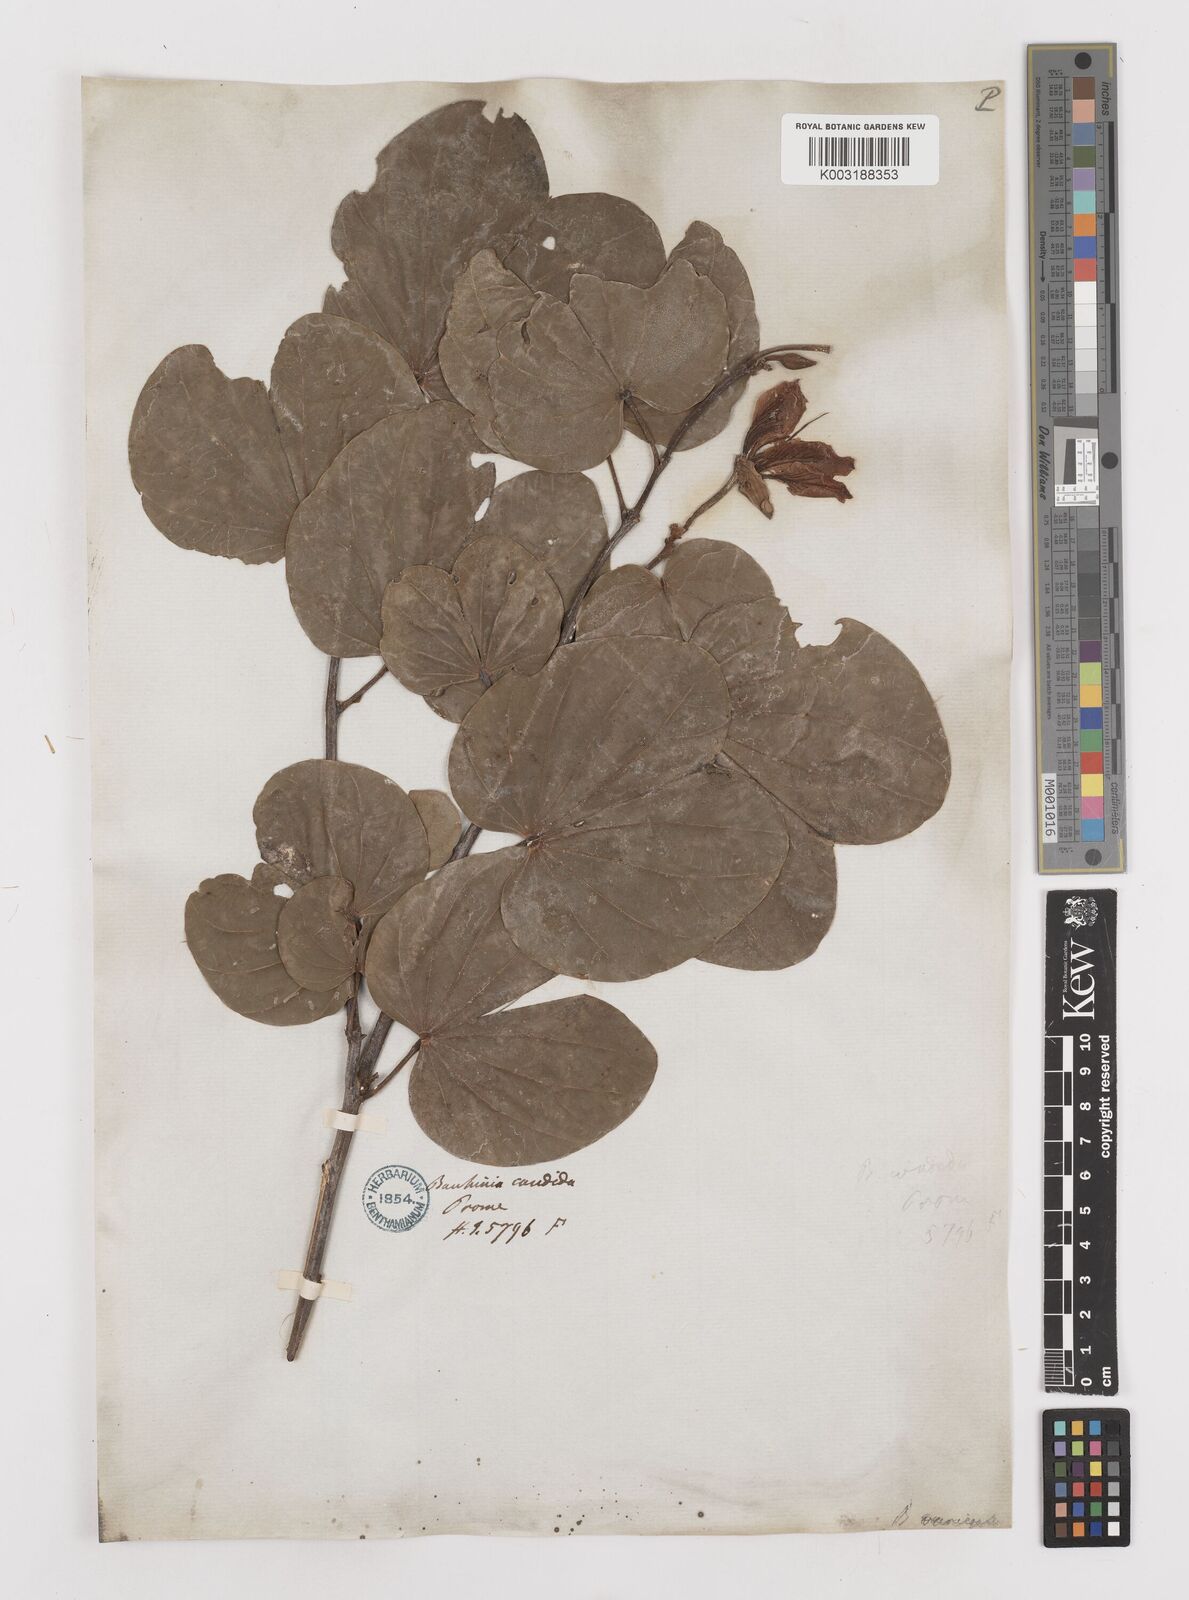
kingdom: Plantae
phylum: Tracheophyta
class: Magnoliopsida
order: Fabales
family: Fabaceae
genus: Bauhinia
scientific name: Bauhinia variegata
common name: Mountain ebony
